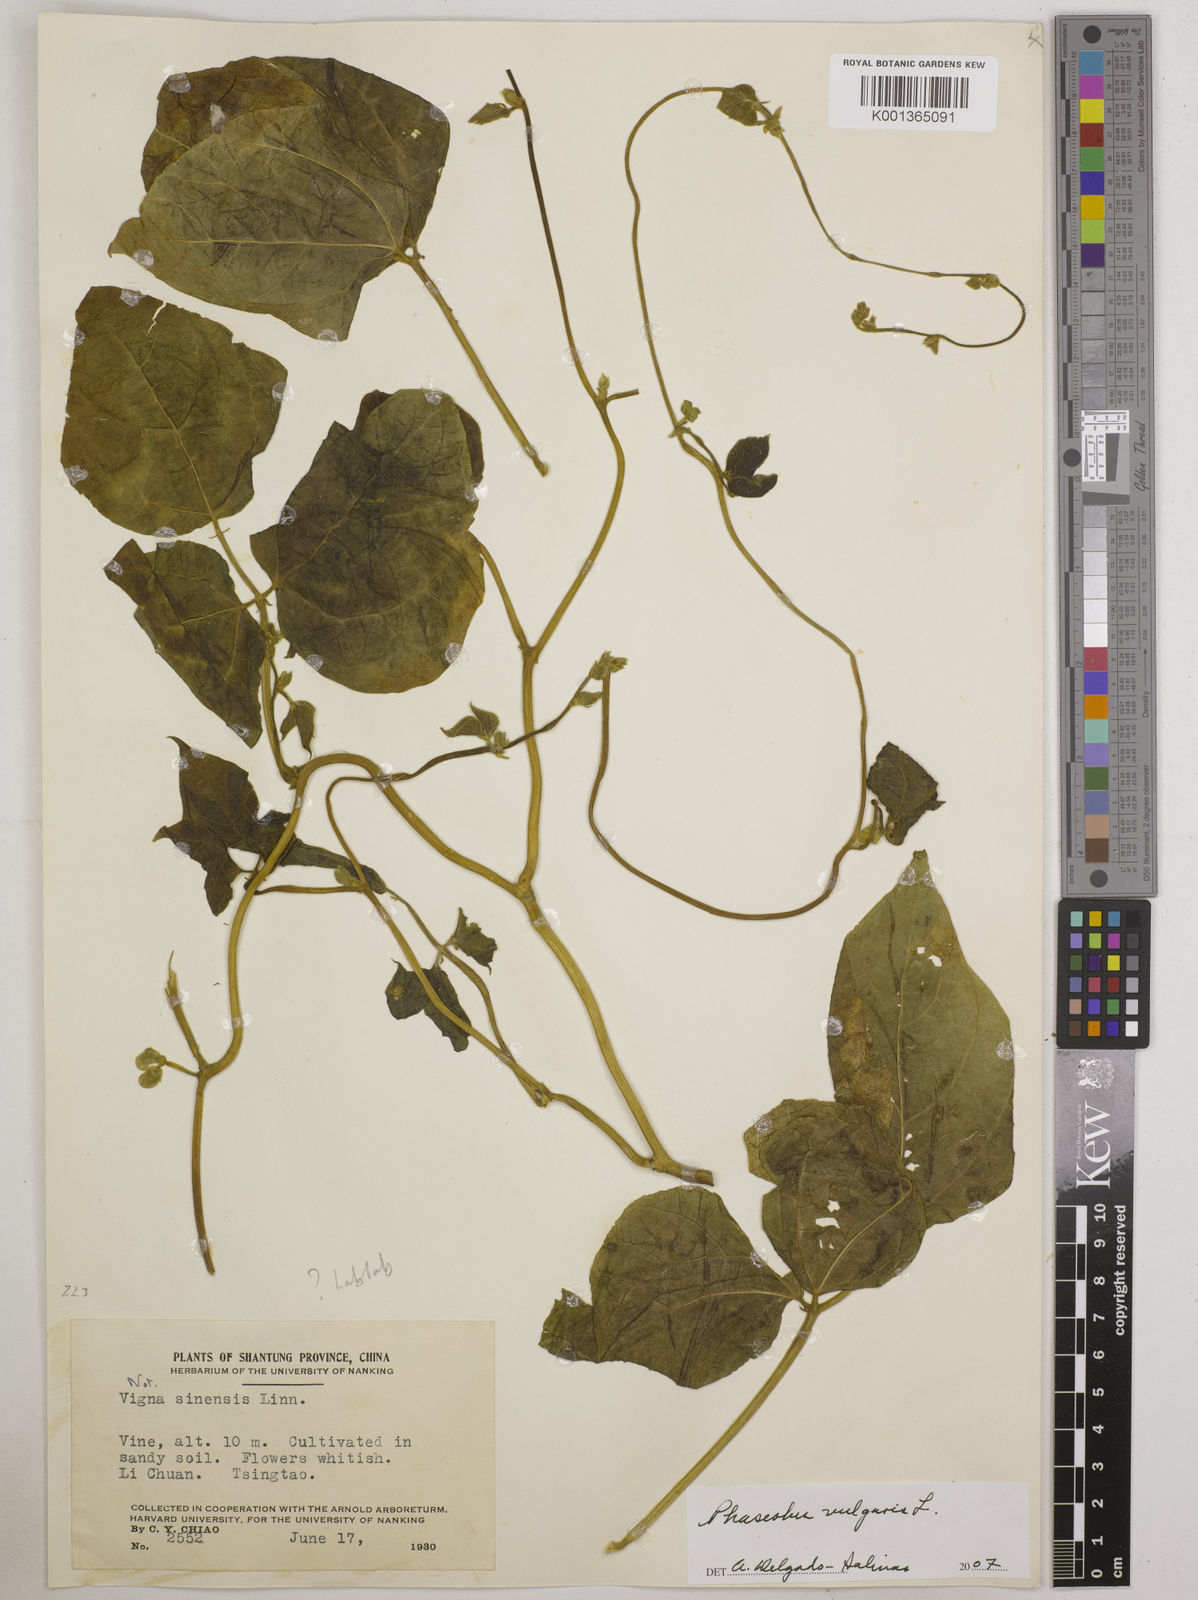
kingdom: Plantae
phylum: Tracheophyta
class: Magnoliopsida
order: Fabales
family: Fabaceae
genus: Phaseolus
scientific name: Phaseolus vulgaris
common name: Bean
